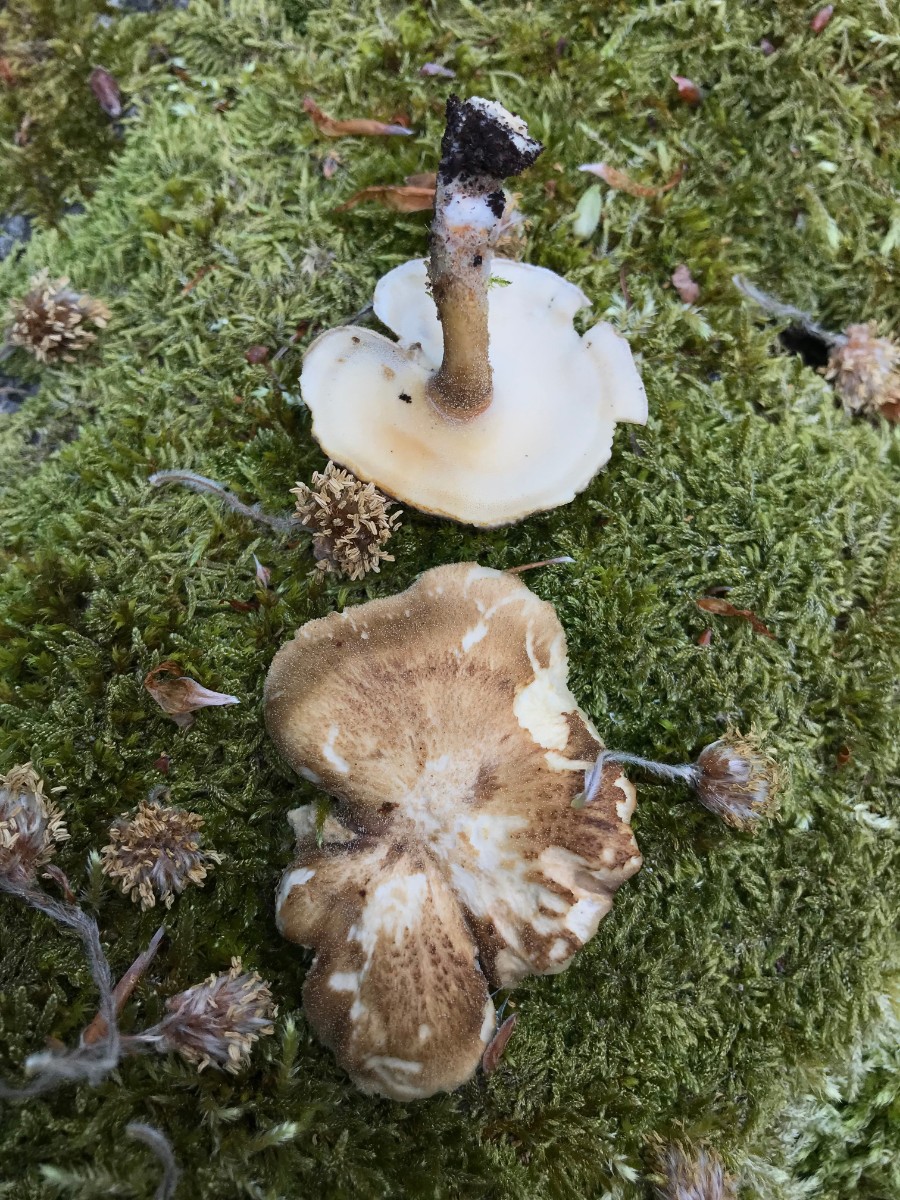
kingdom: Fungi
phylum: Basidiomycota
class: Agaricomycetes
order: Polyporales
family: Polyporaceae
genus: Lentinus
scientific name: Lentinus substrictus
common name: forårs-stilkporesvamp
